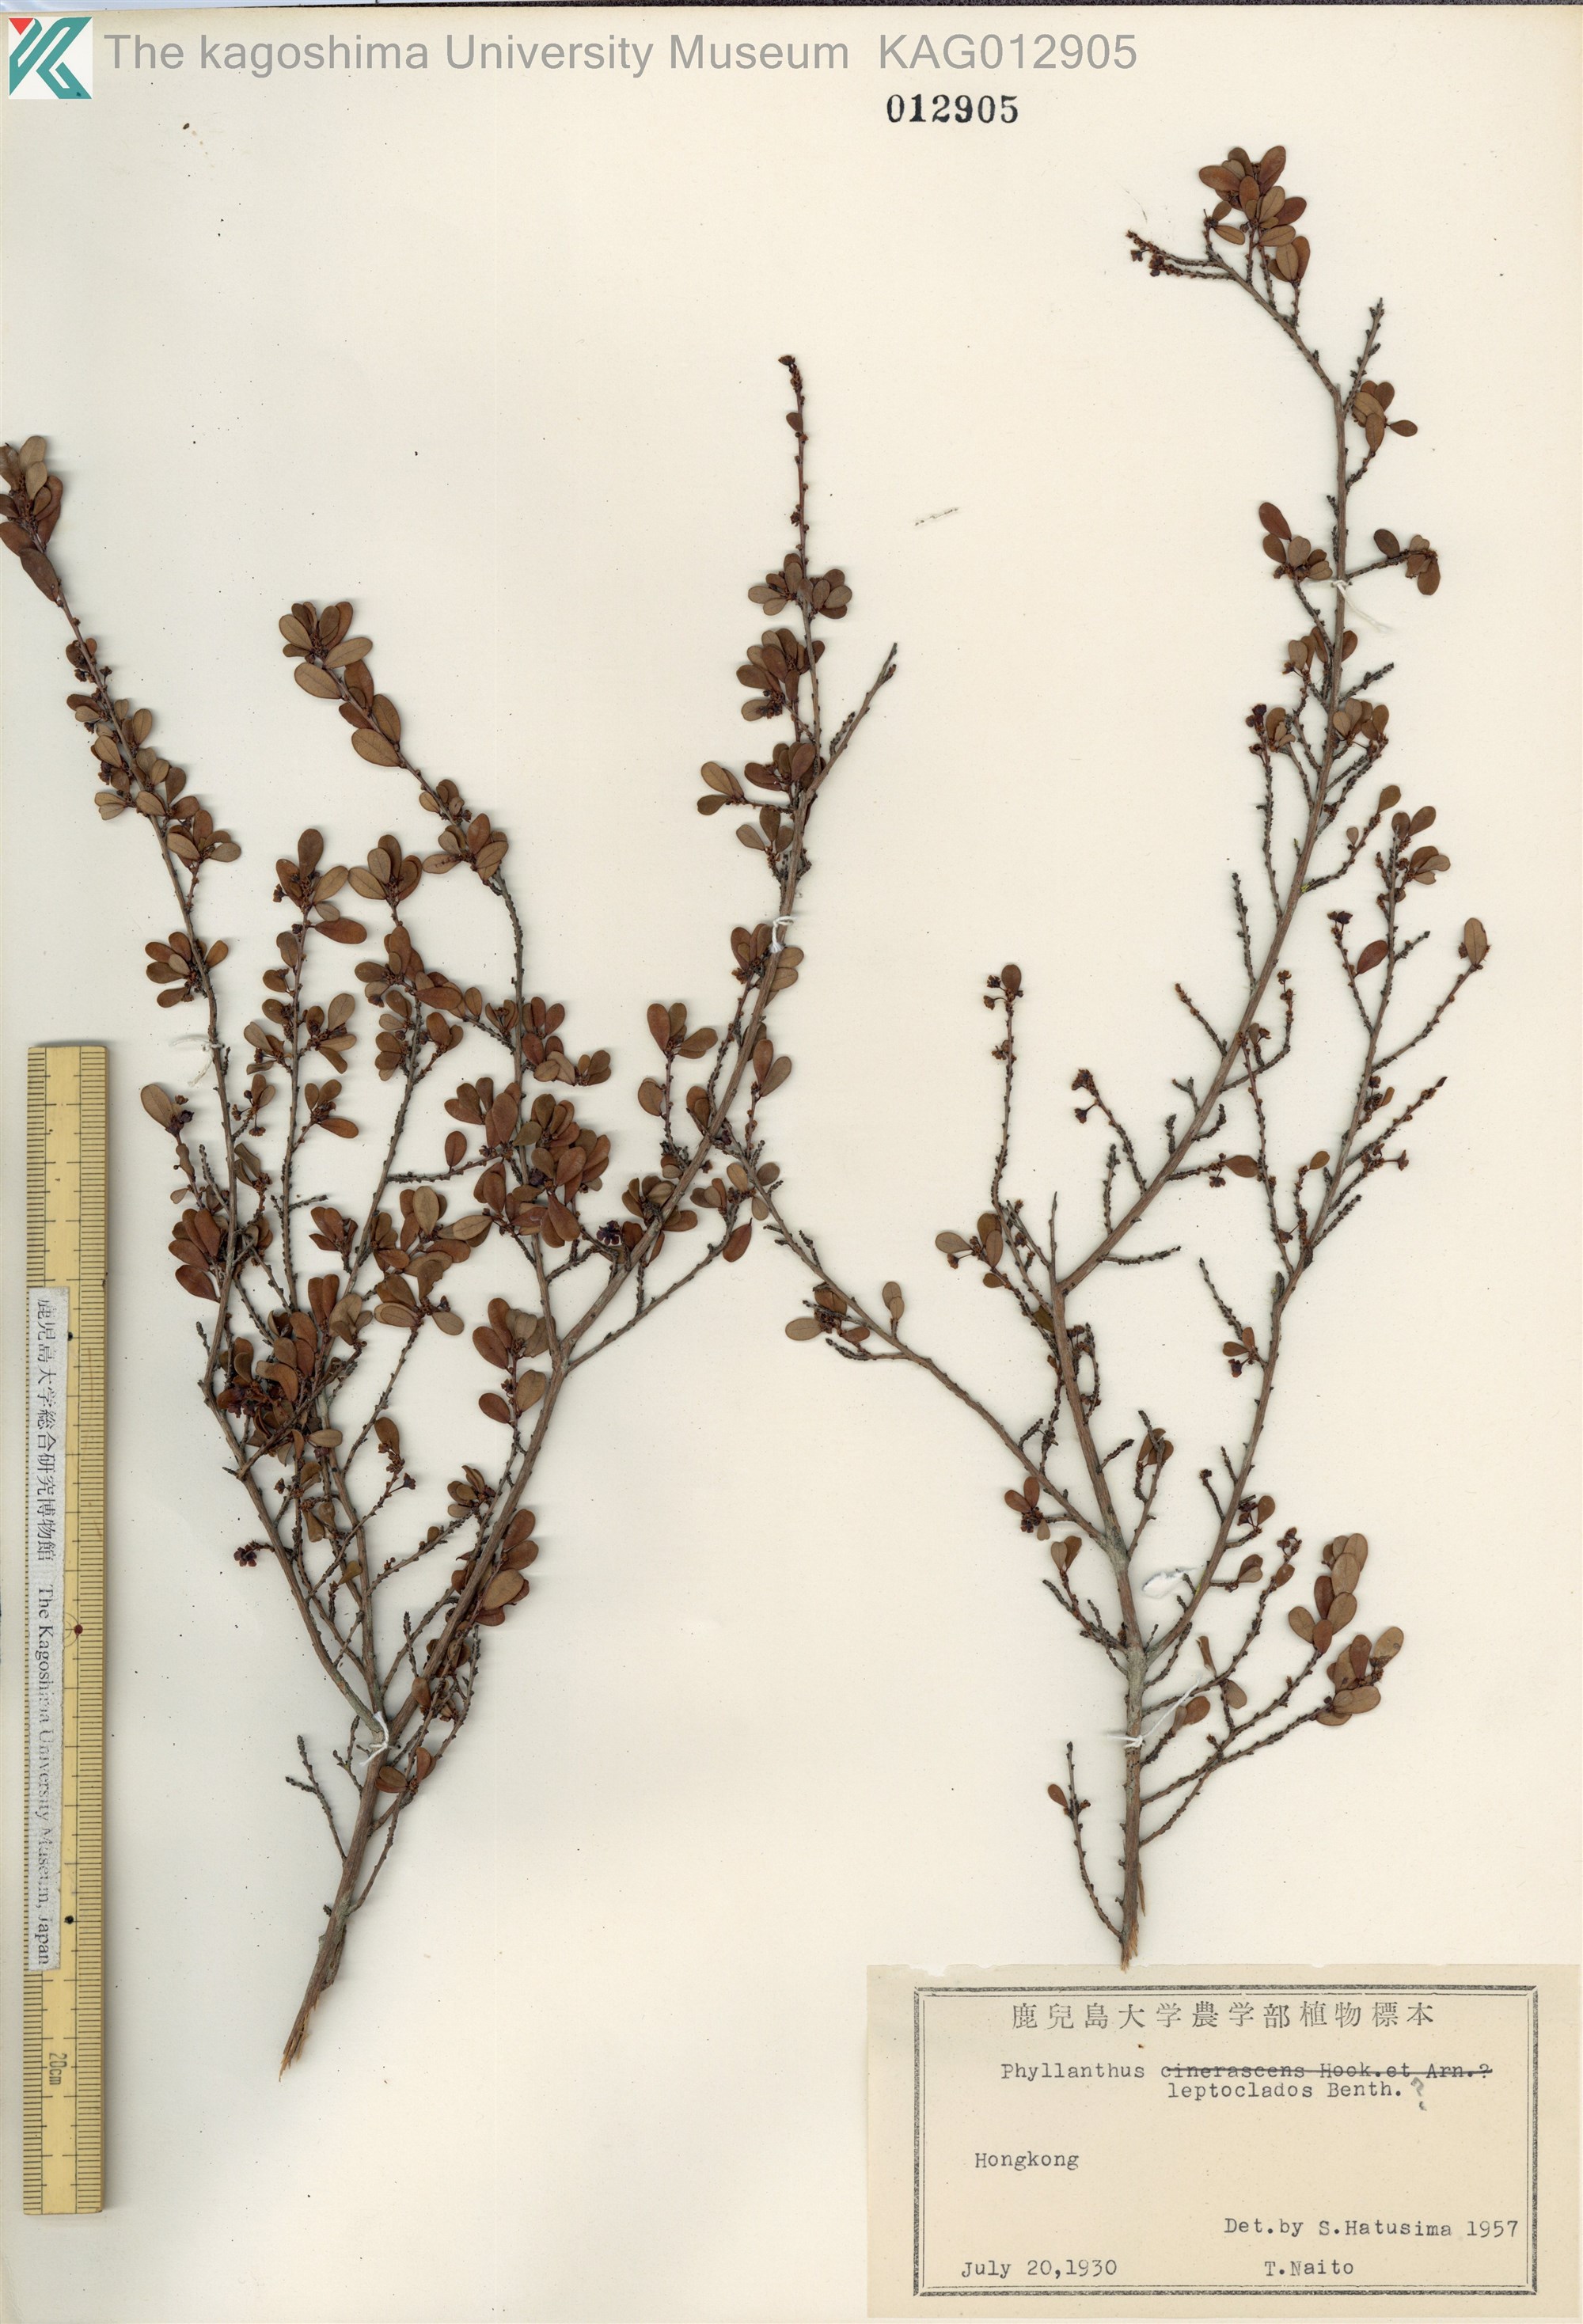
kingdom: Plantae
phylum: Tracheophyta
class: Magnoliopsida
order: Malpighiales
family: Phyllanthaceae
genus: Phyllanthus
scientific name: Phyllanthus parvifolius
